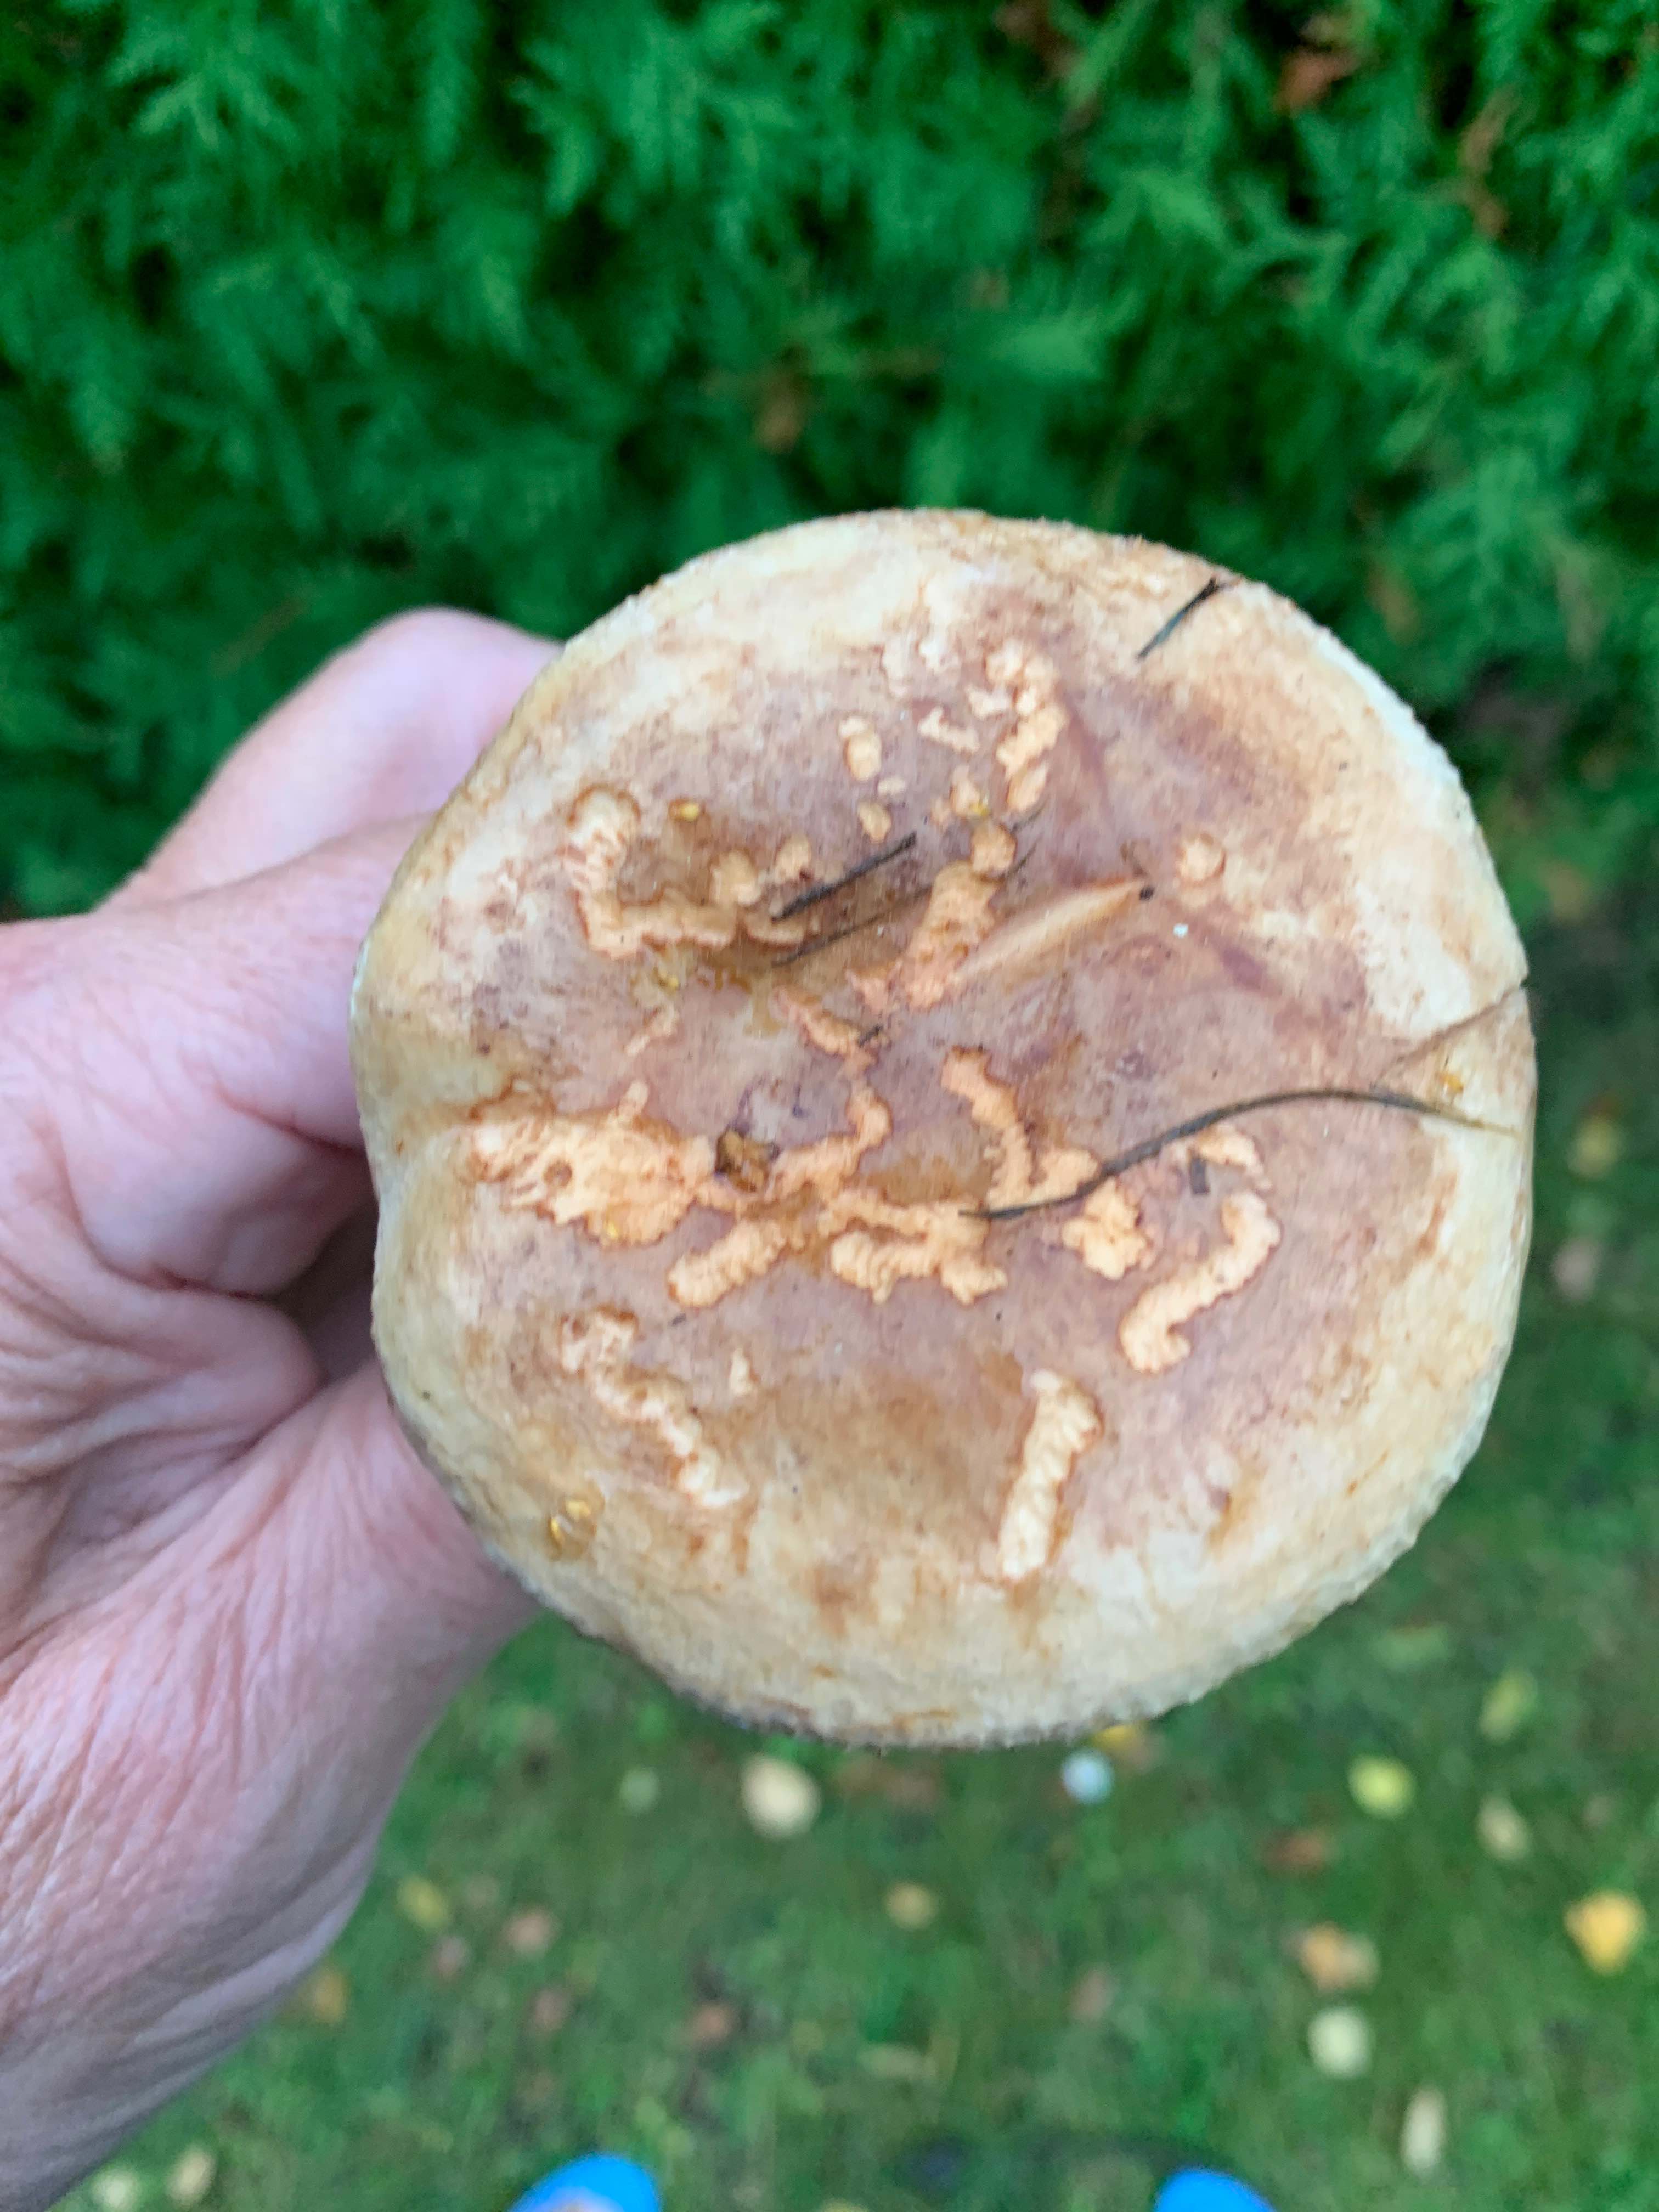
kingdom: Fungi
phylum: Basidiomycota
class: Agaricomycetes
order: Boletales
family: Paxillaceae
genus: Paxillus
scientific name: Paxillus involutus
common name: almindelig netbladhat
